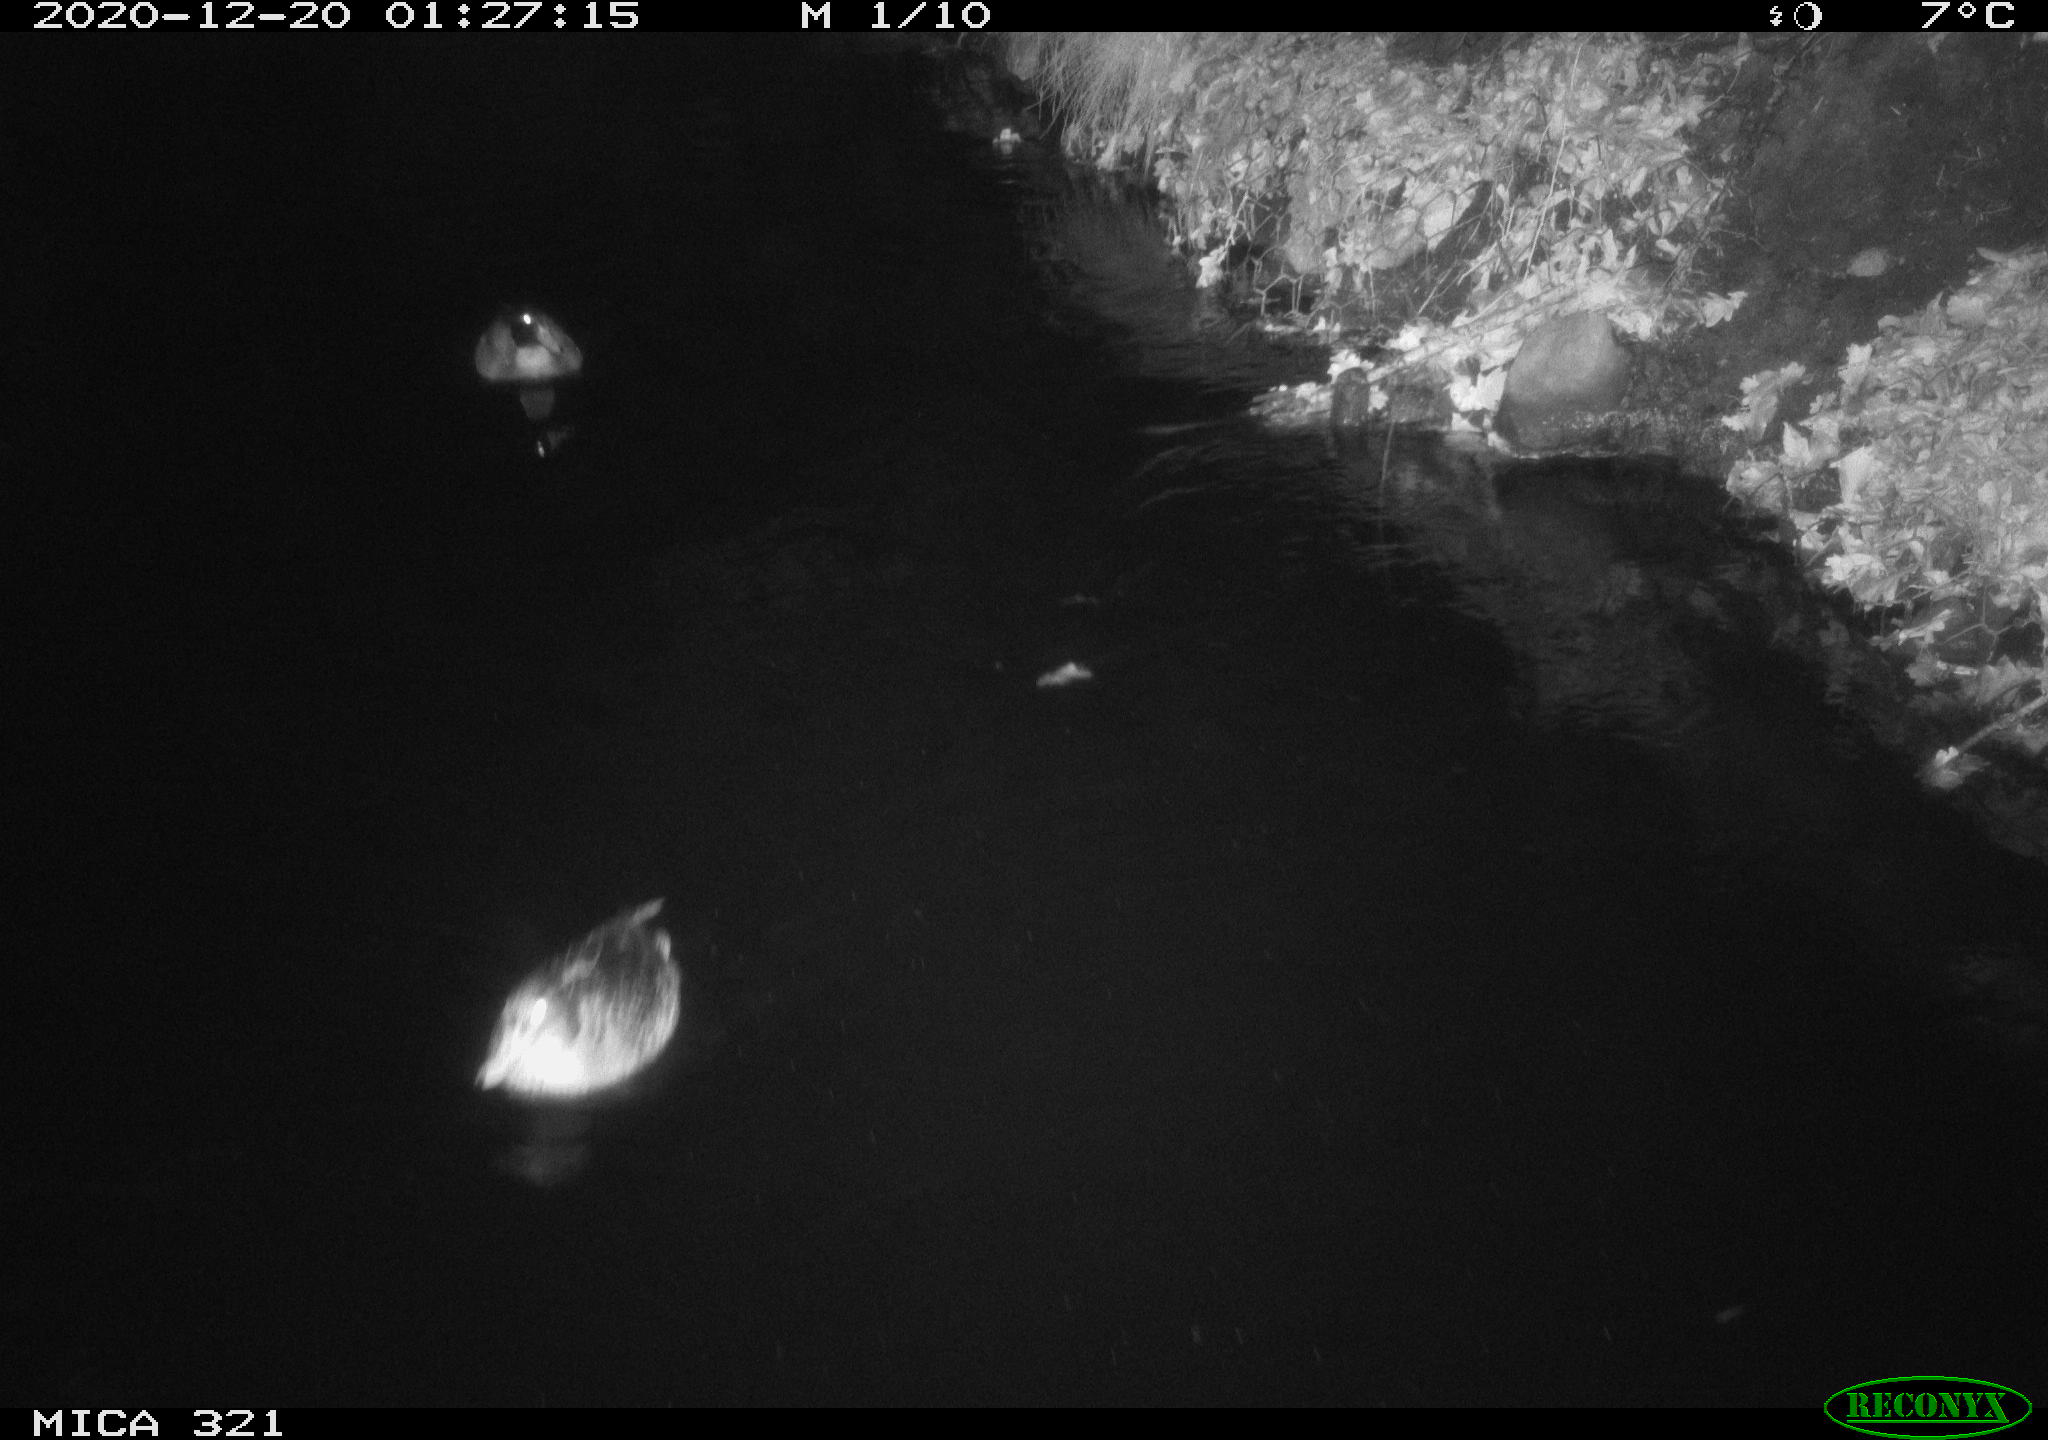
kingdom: Animalia
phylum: Chordata
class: Aves
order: Anseriformes
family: Anatidae
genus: Anas
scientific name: Anas platyrhynchos
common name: Mallard
